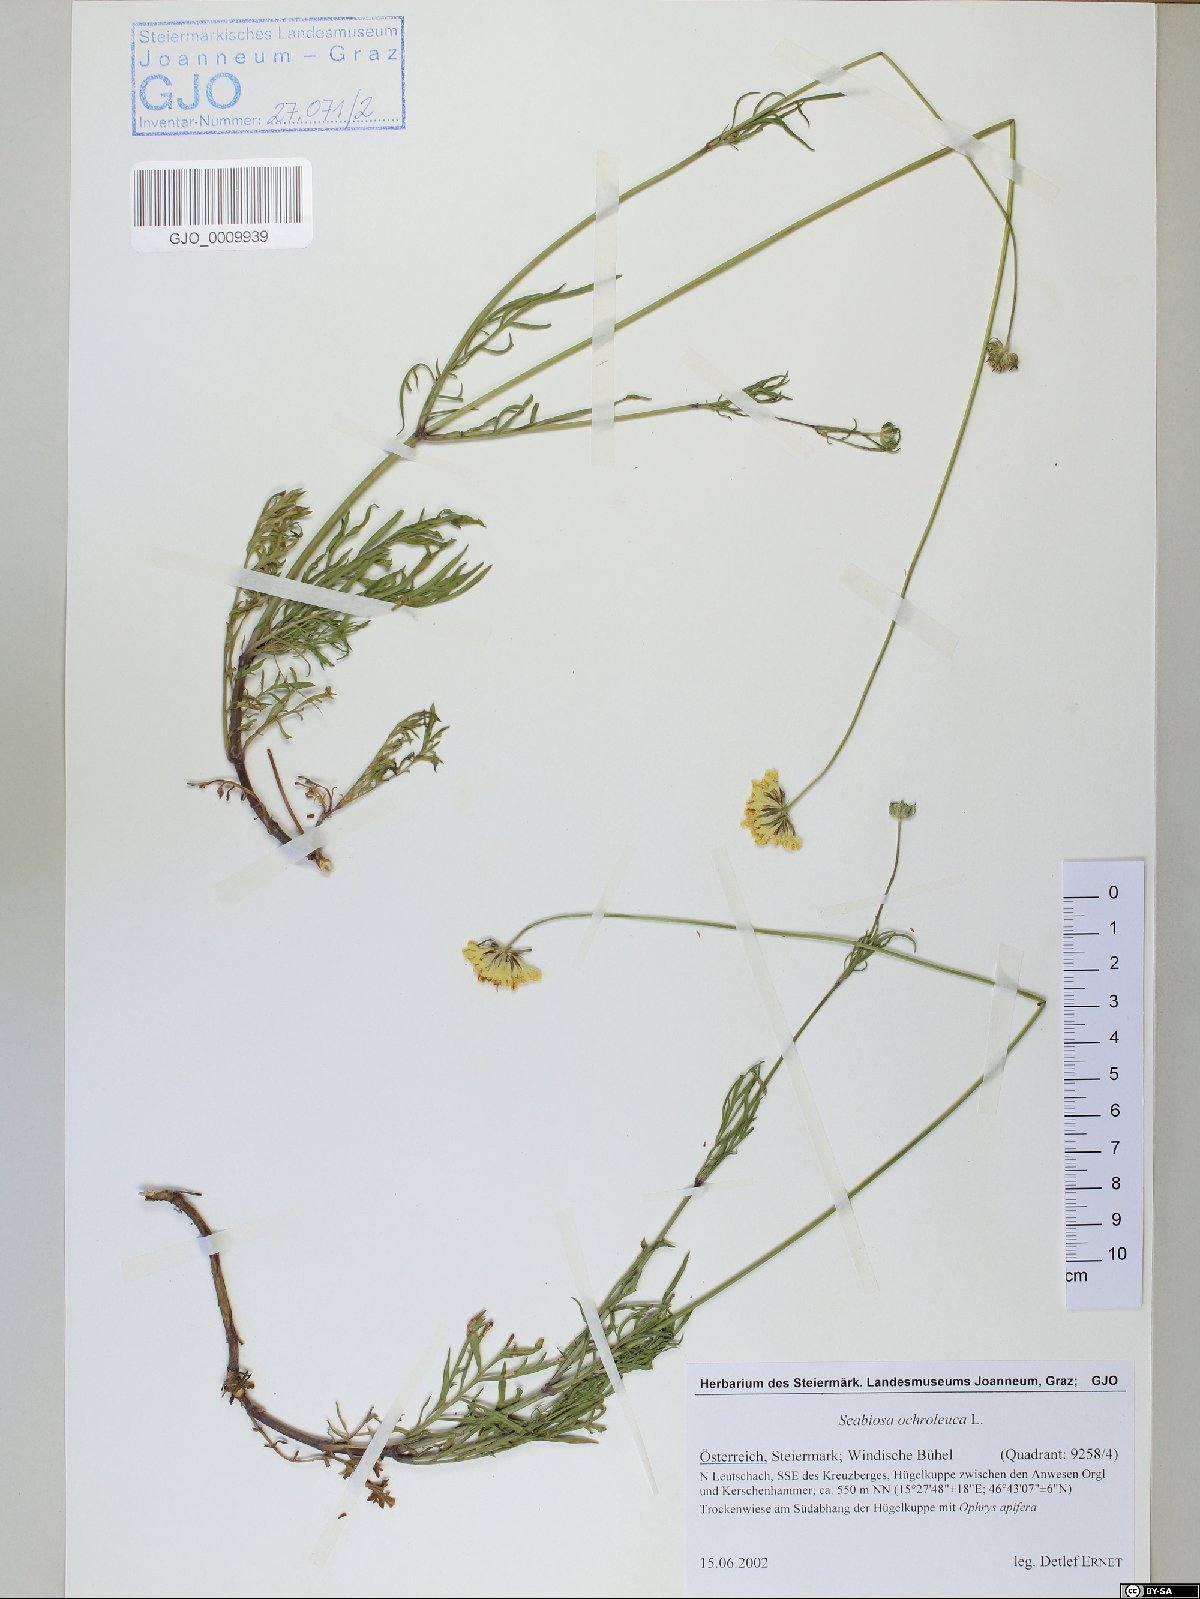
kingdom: Plantae
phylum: Tracheophyta
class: Magnoliopsida
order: Dipsacales
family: Caprifoliaceae
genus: Scabiosa
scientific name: Scabiosa ochroleuca
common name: Cream pincushions
